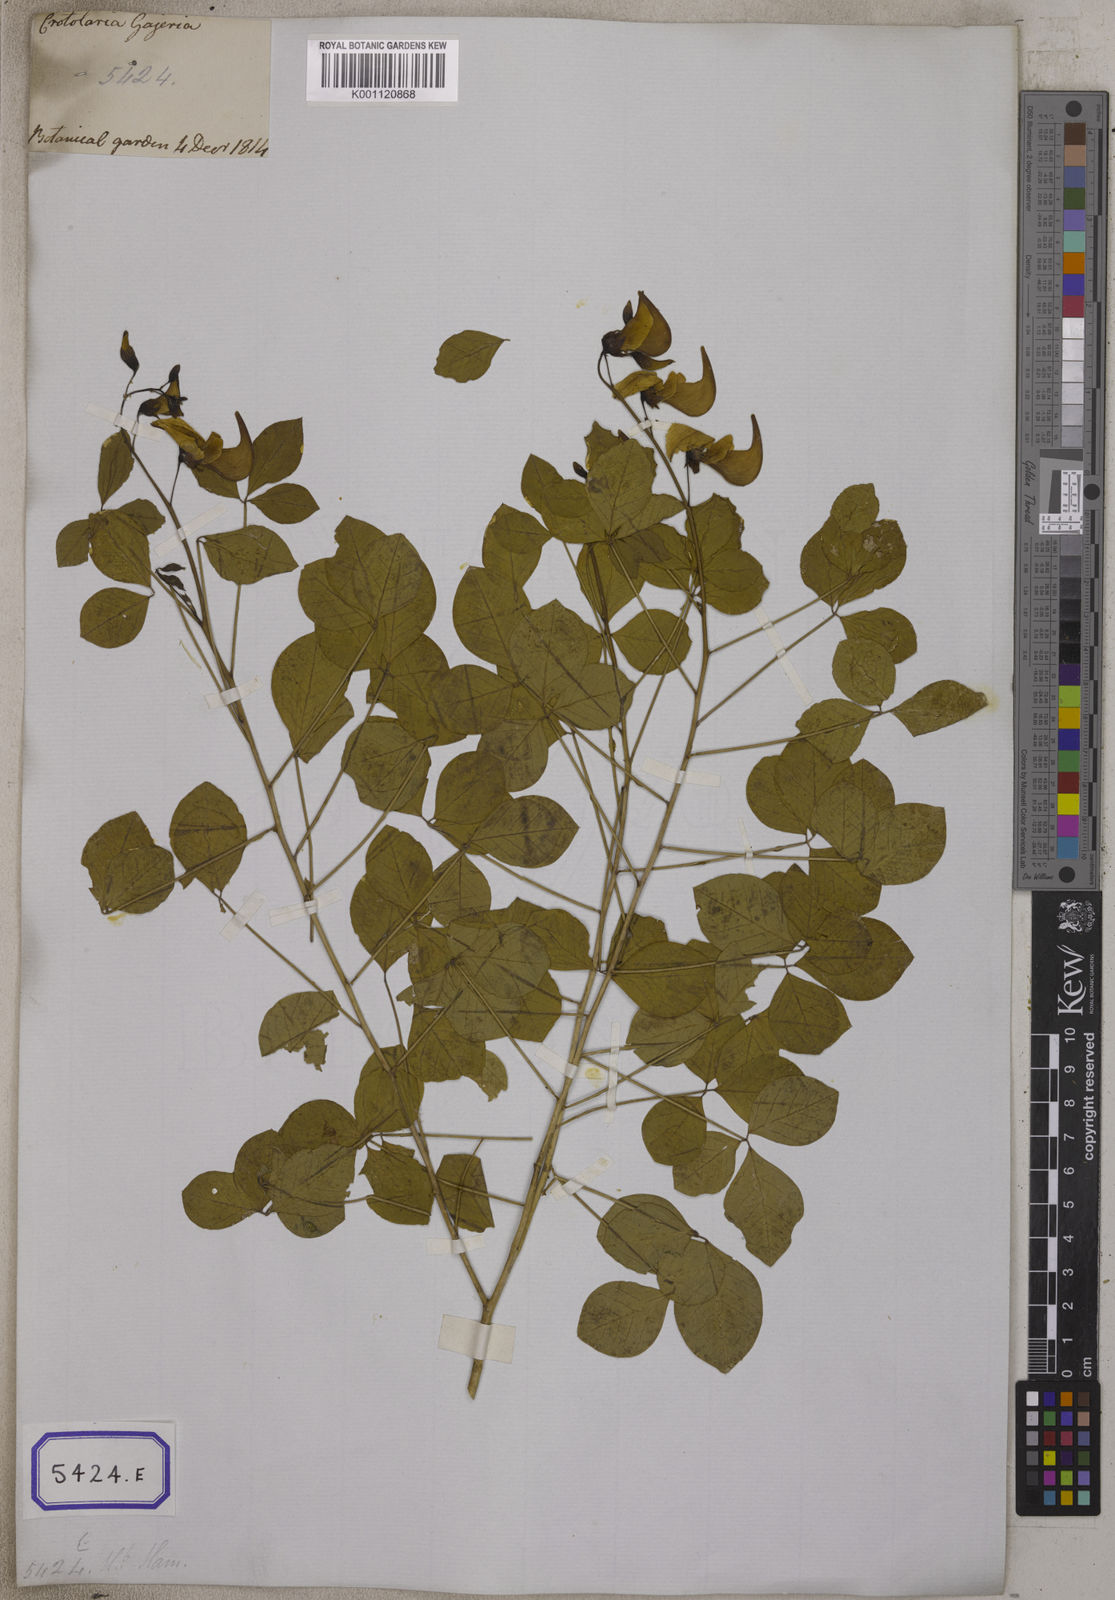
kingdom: Plantae
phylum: Tracheophyta
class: Magnoliopsida
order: Fabales
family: Fabaceae
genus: Crotalaria
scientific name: Crotalaria laburnifolia
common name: Birdflower
